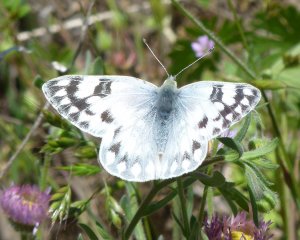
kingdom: Animalia
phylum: Arthropoda
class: Insecta
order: Lepidoptera
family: Pieridae
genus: Pontia
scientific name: Pontia occidentalis
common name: Western White
